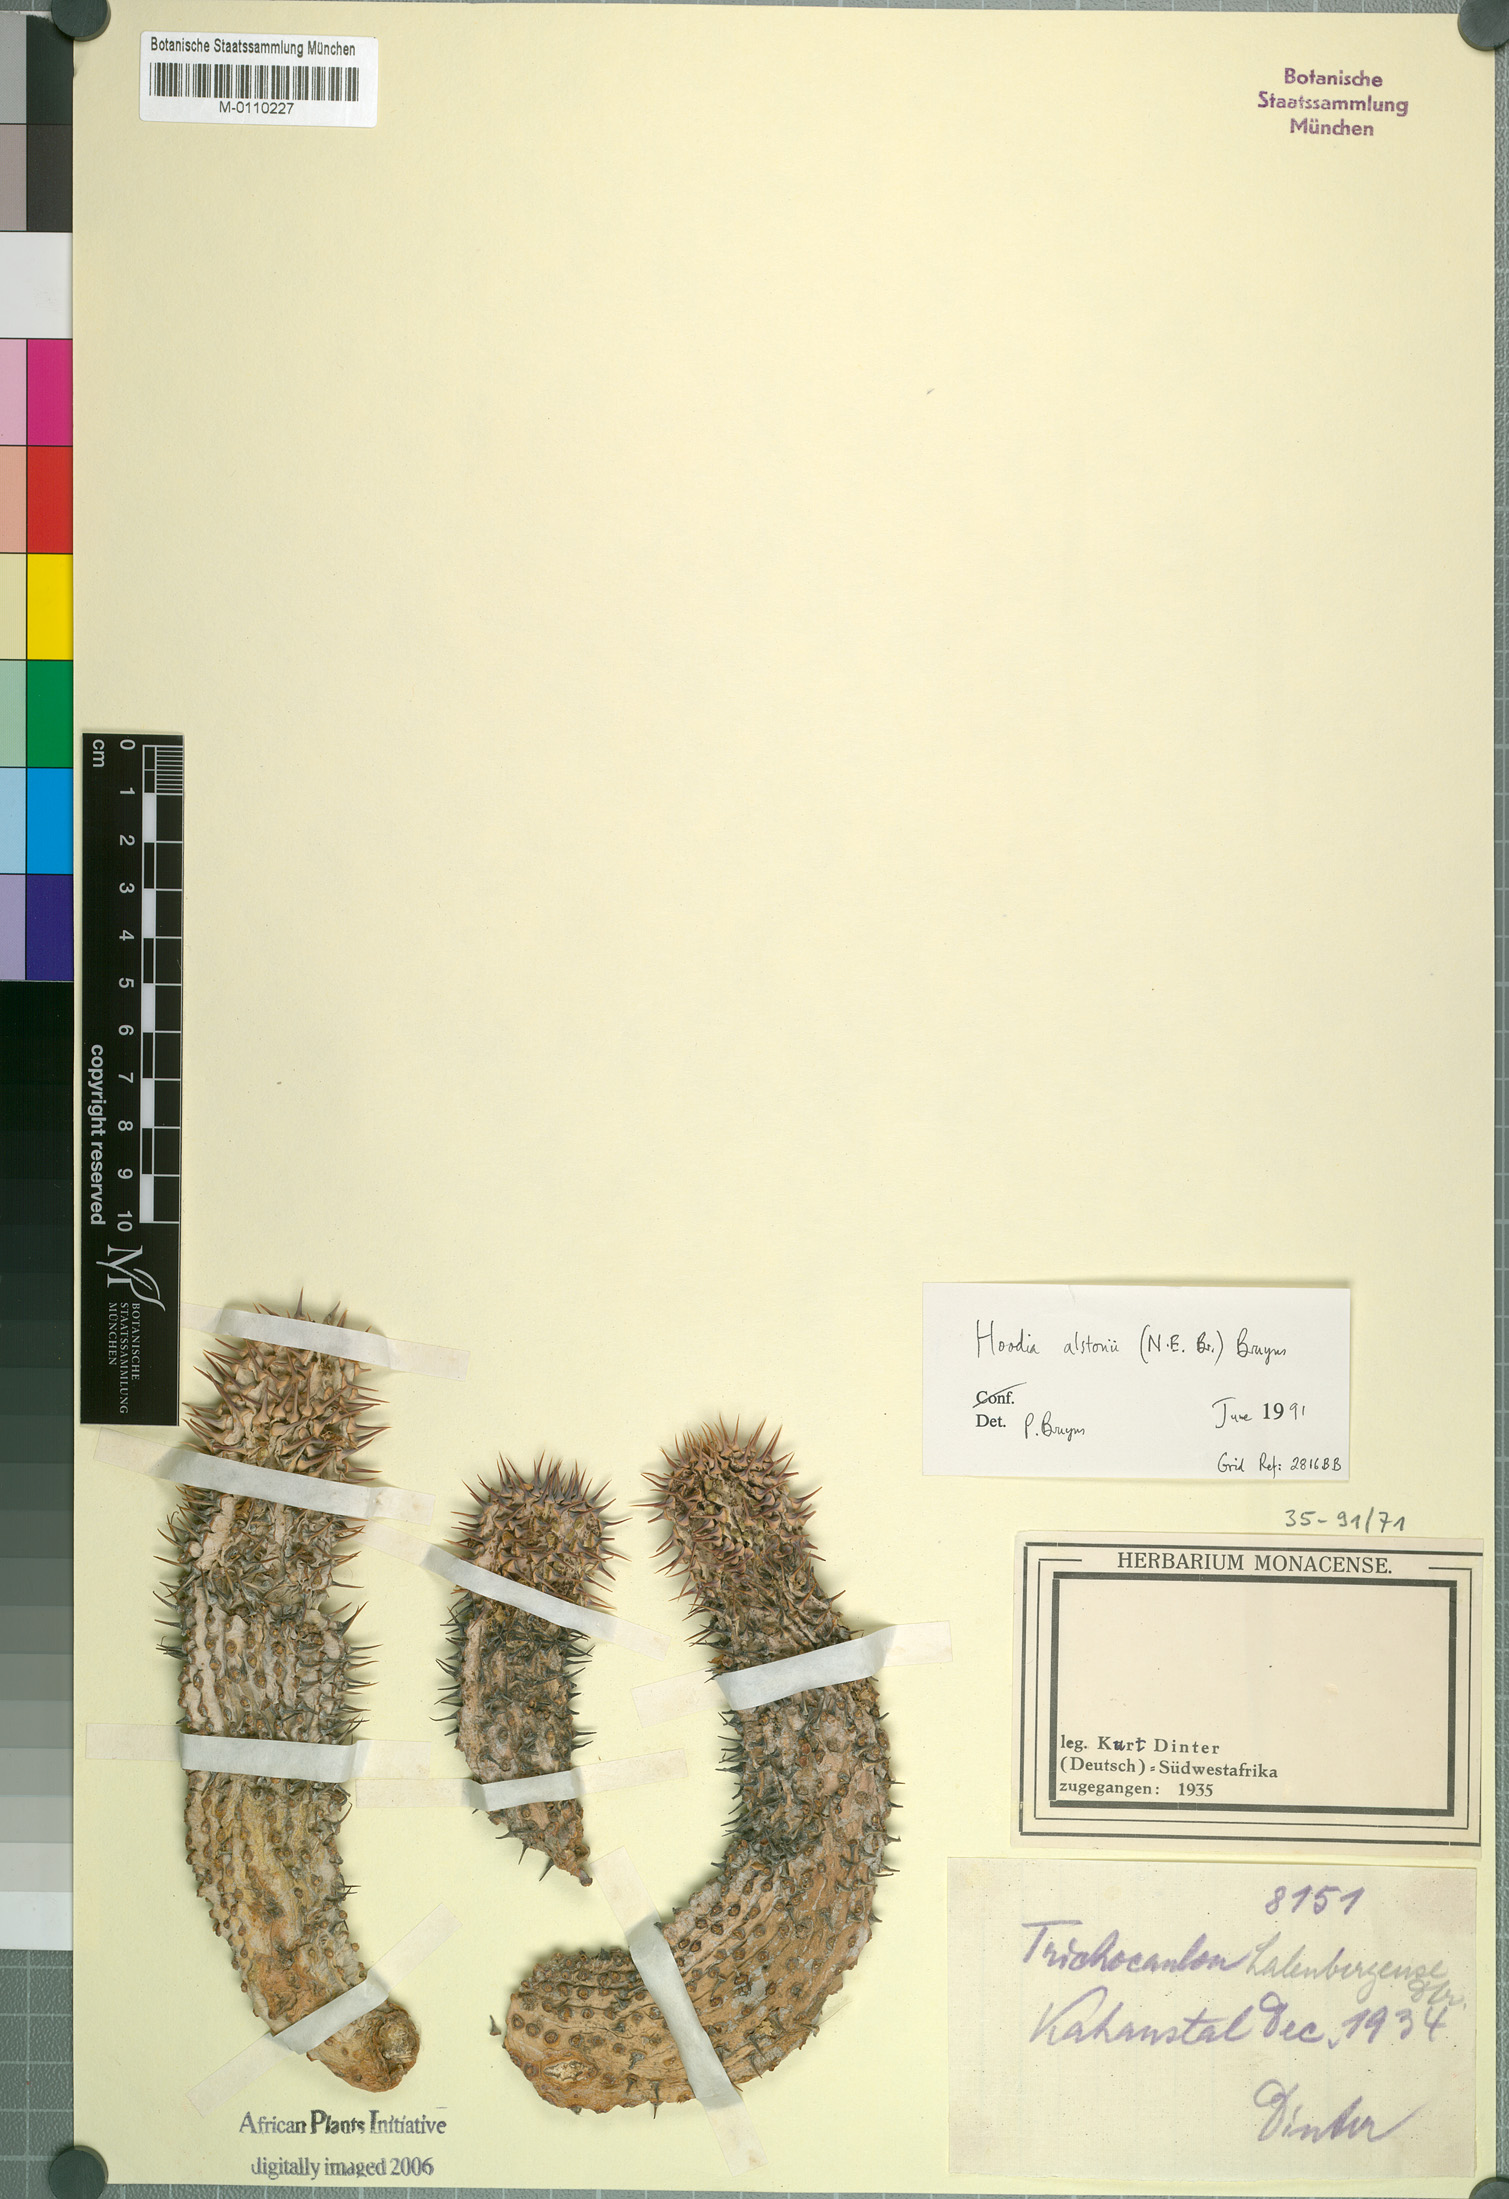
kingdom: Plantae
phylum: Tracheophyta
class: Magnoliopsida
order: Gentianales
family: Apocynaceae
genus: Ceropegia
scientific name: Ceropegia alstonii
